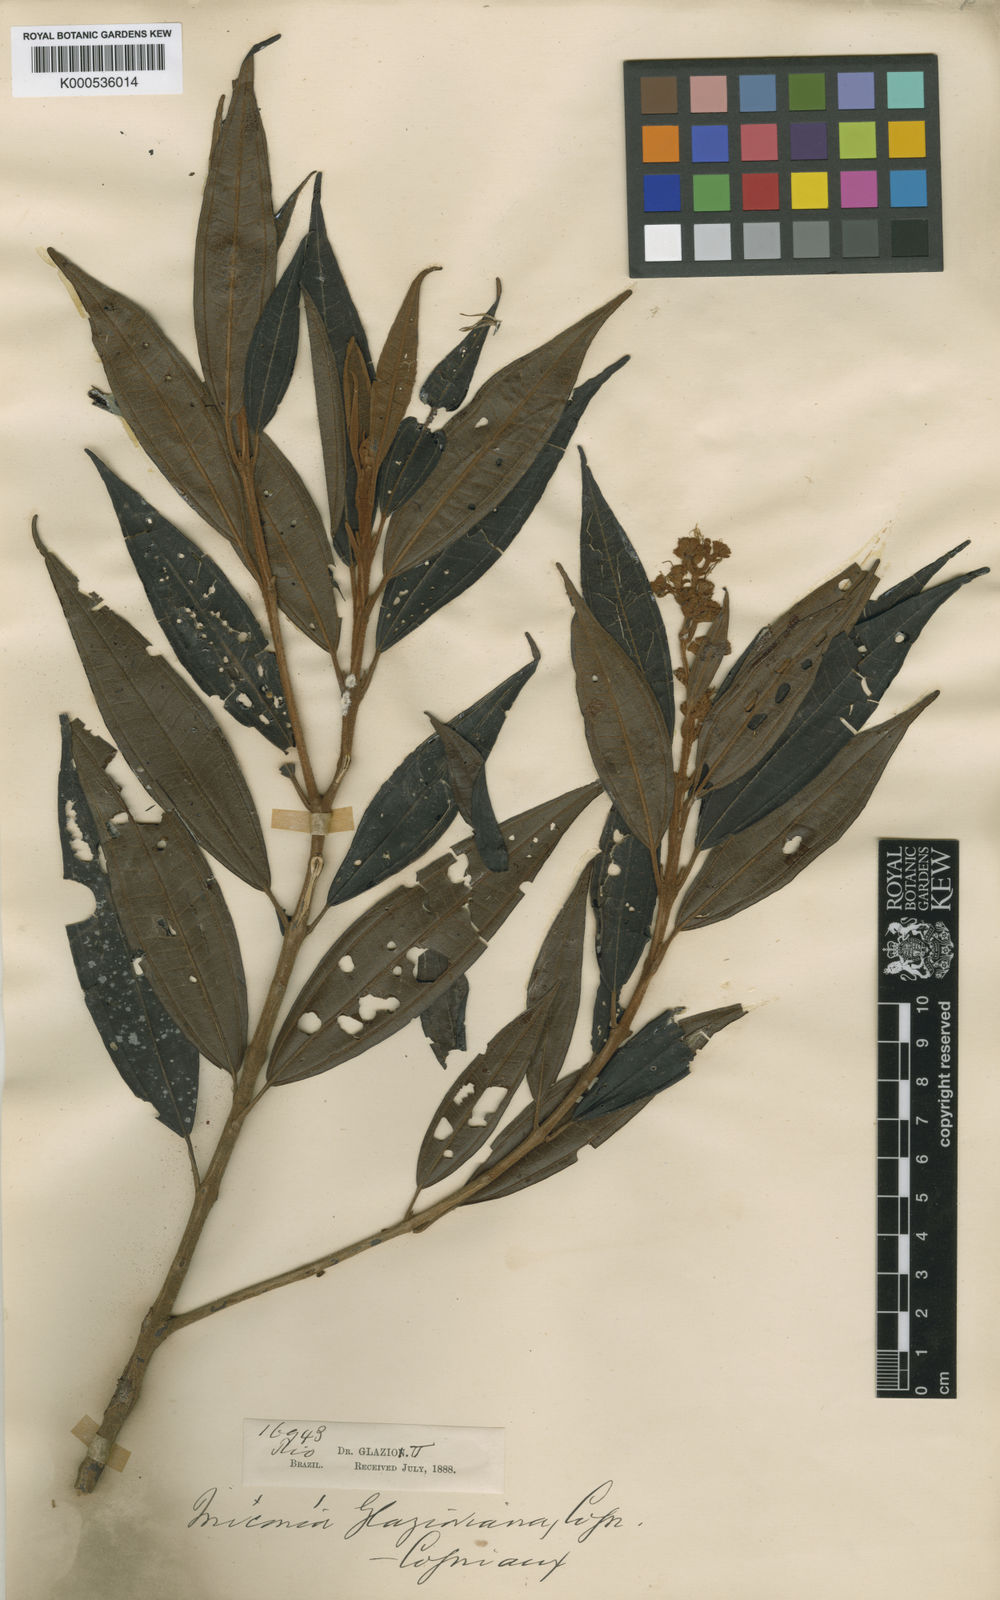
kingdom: Plantae
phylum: Tracheophyta
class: Magnoliopsida
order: Myrtales
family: Melastomataceae
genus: Miconia
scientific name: Miconia glazioviana
